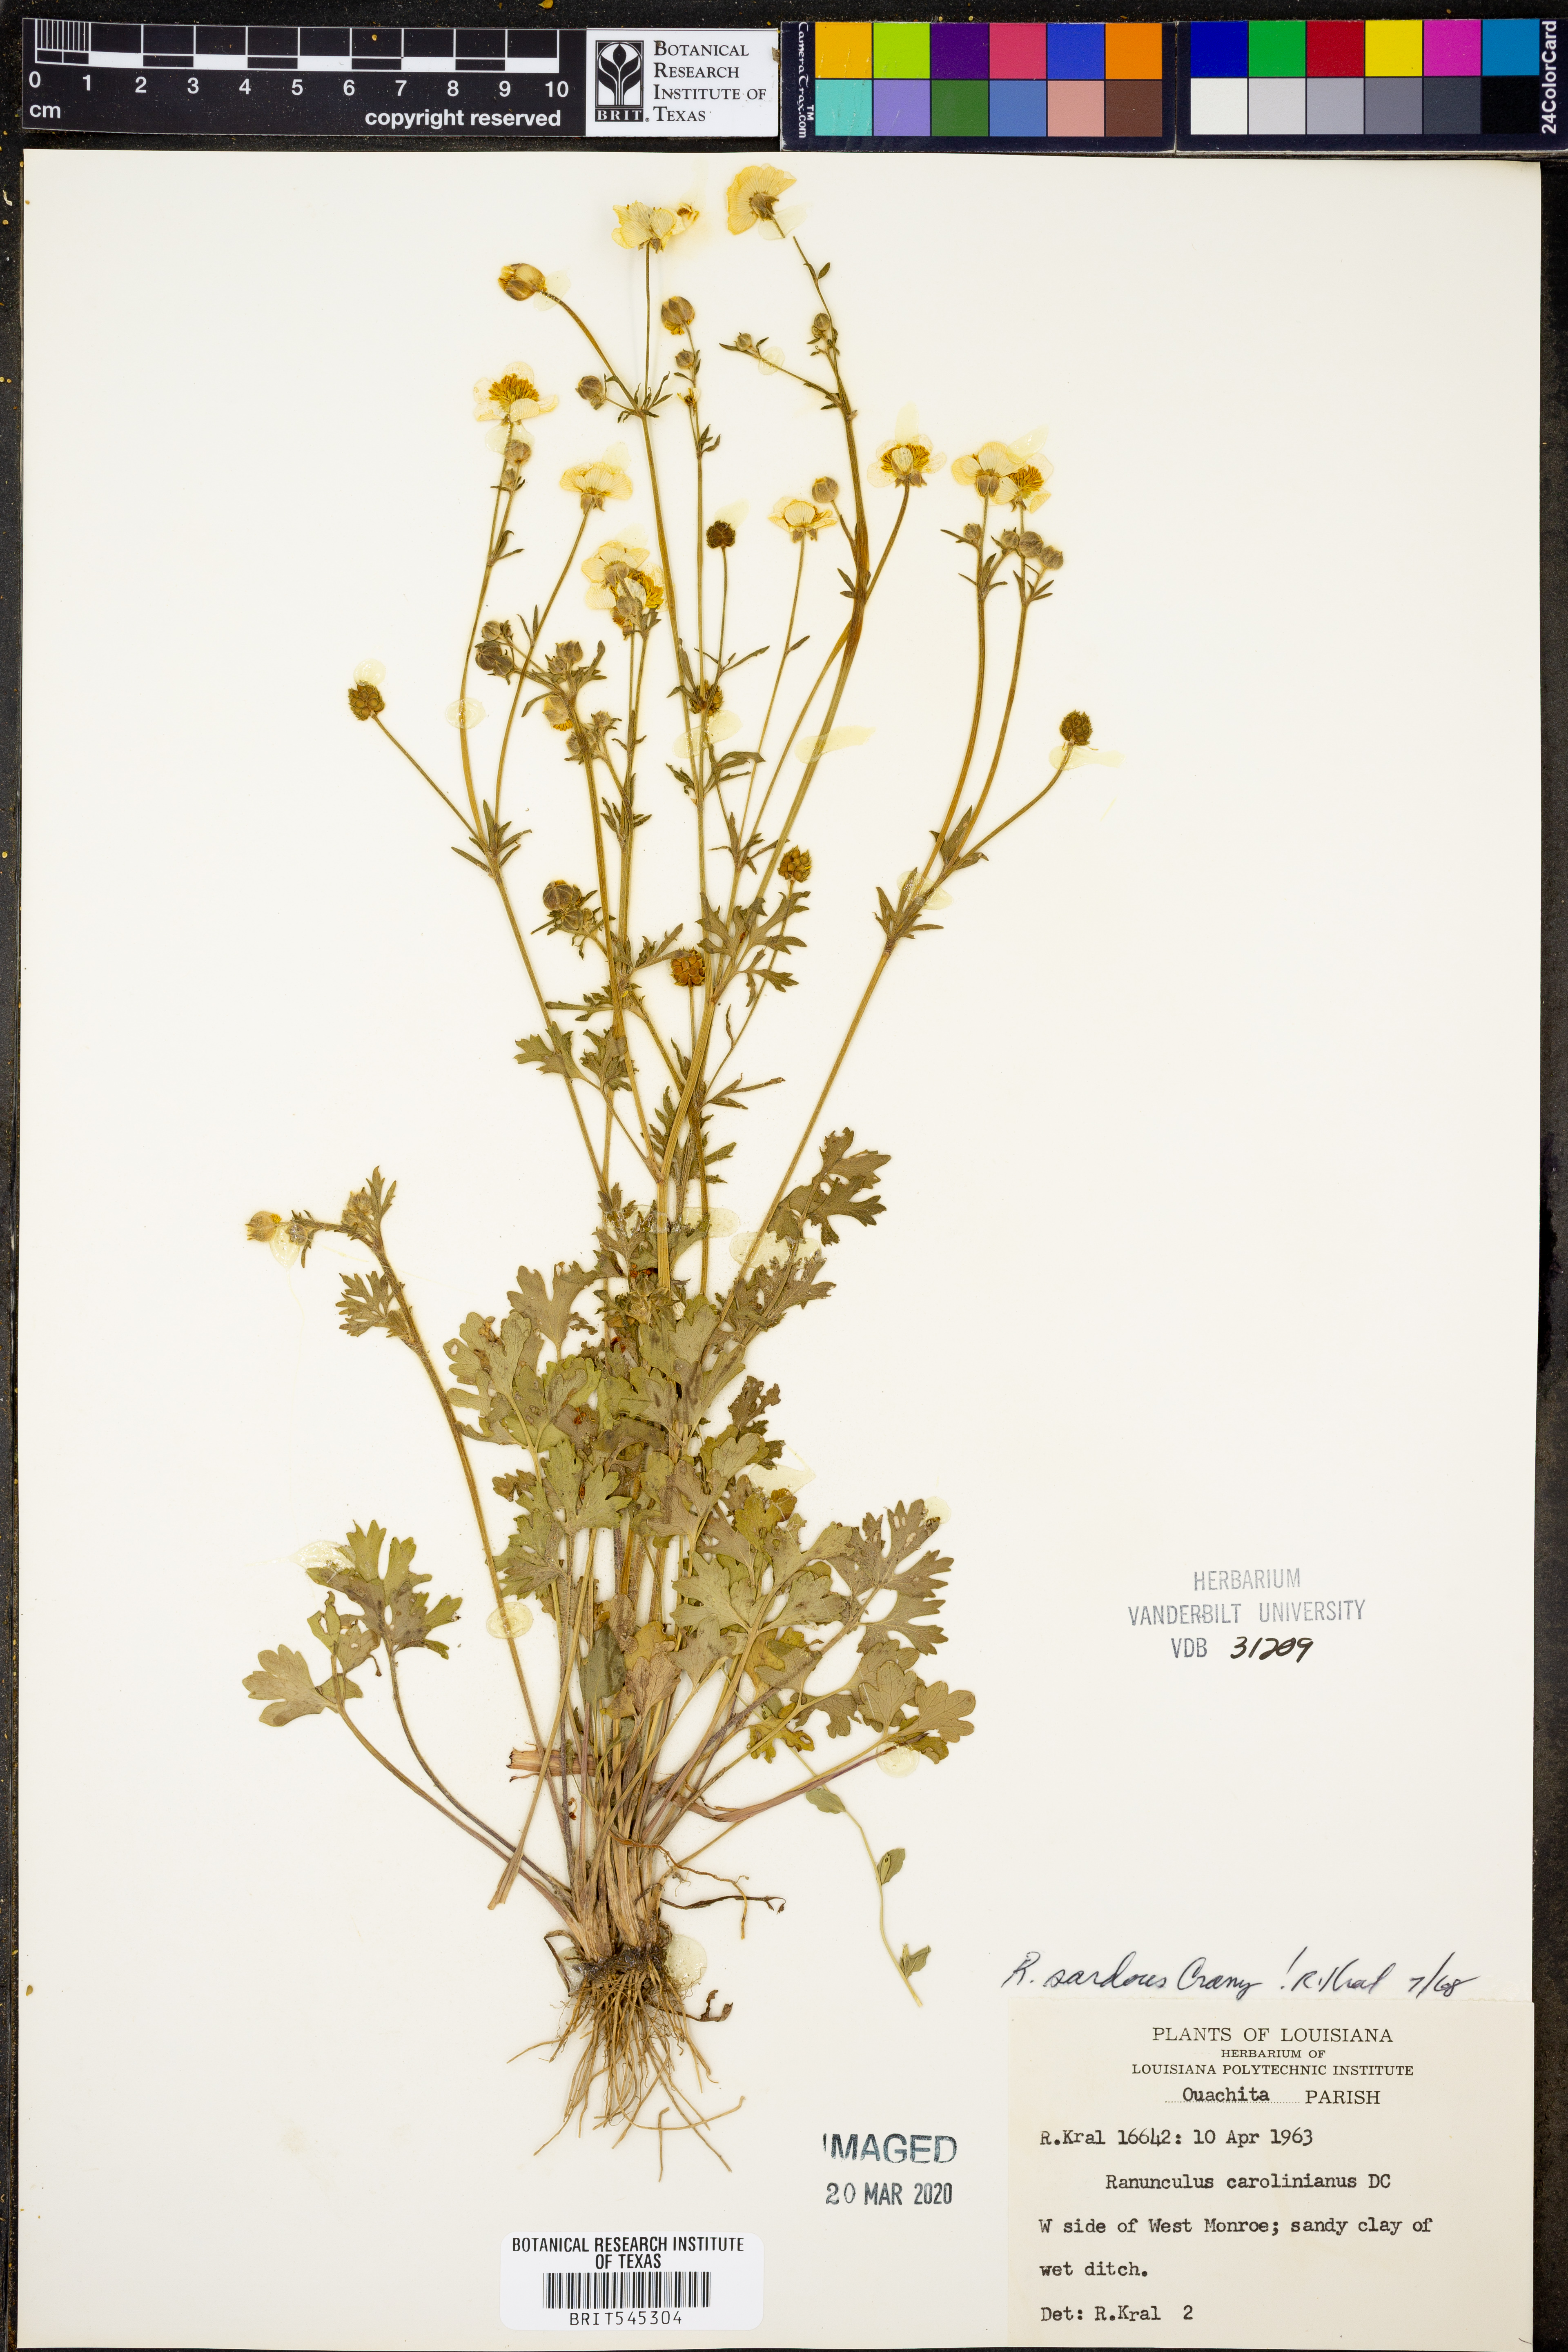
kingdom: Plantae
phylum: Tracheophyta
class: Magnoliopsida
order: Ranunculales
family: Ranunculaceae
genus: Ranunculus
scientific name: Ranunculus sardous
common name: Hairy buttercup
